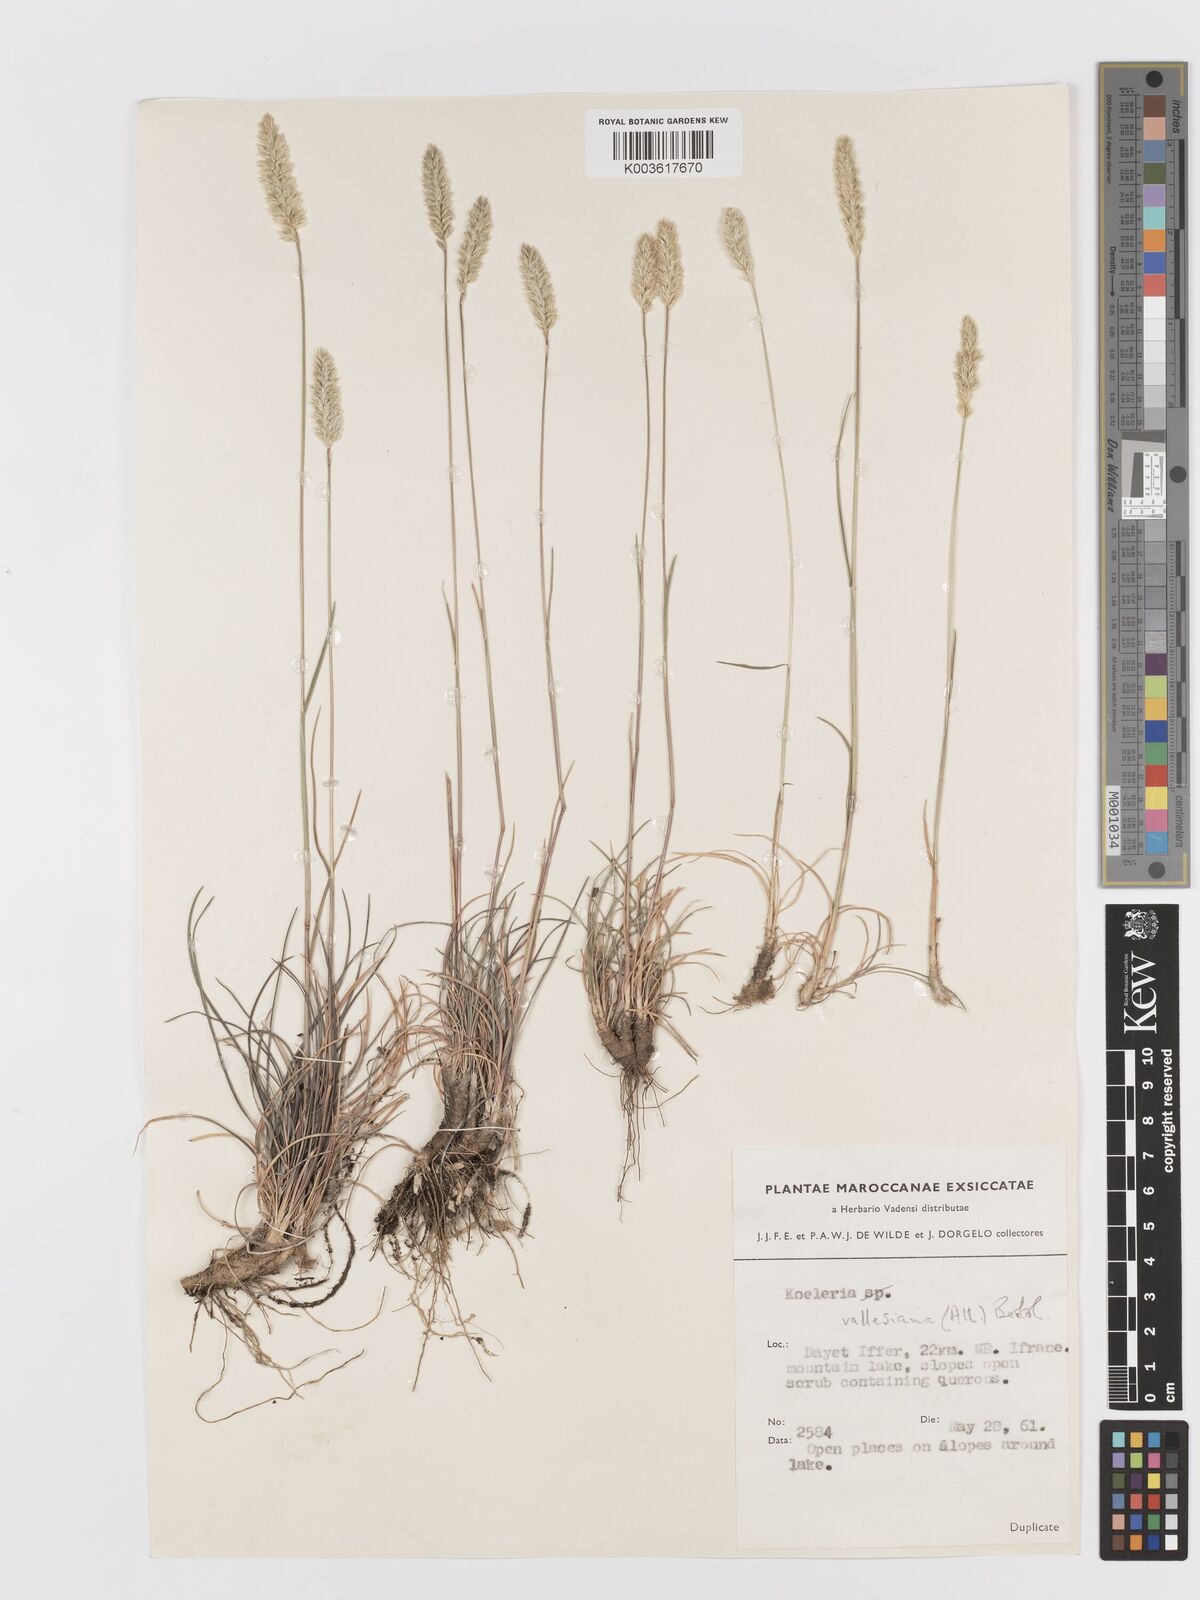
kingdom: Plantae
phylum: Tracheophyta
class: Liliopsida
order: Poales
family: Poaceae
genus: Koeleria
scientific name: Koeleria vallesiana
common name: Somerset hair-grass
